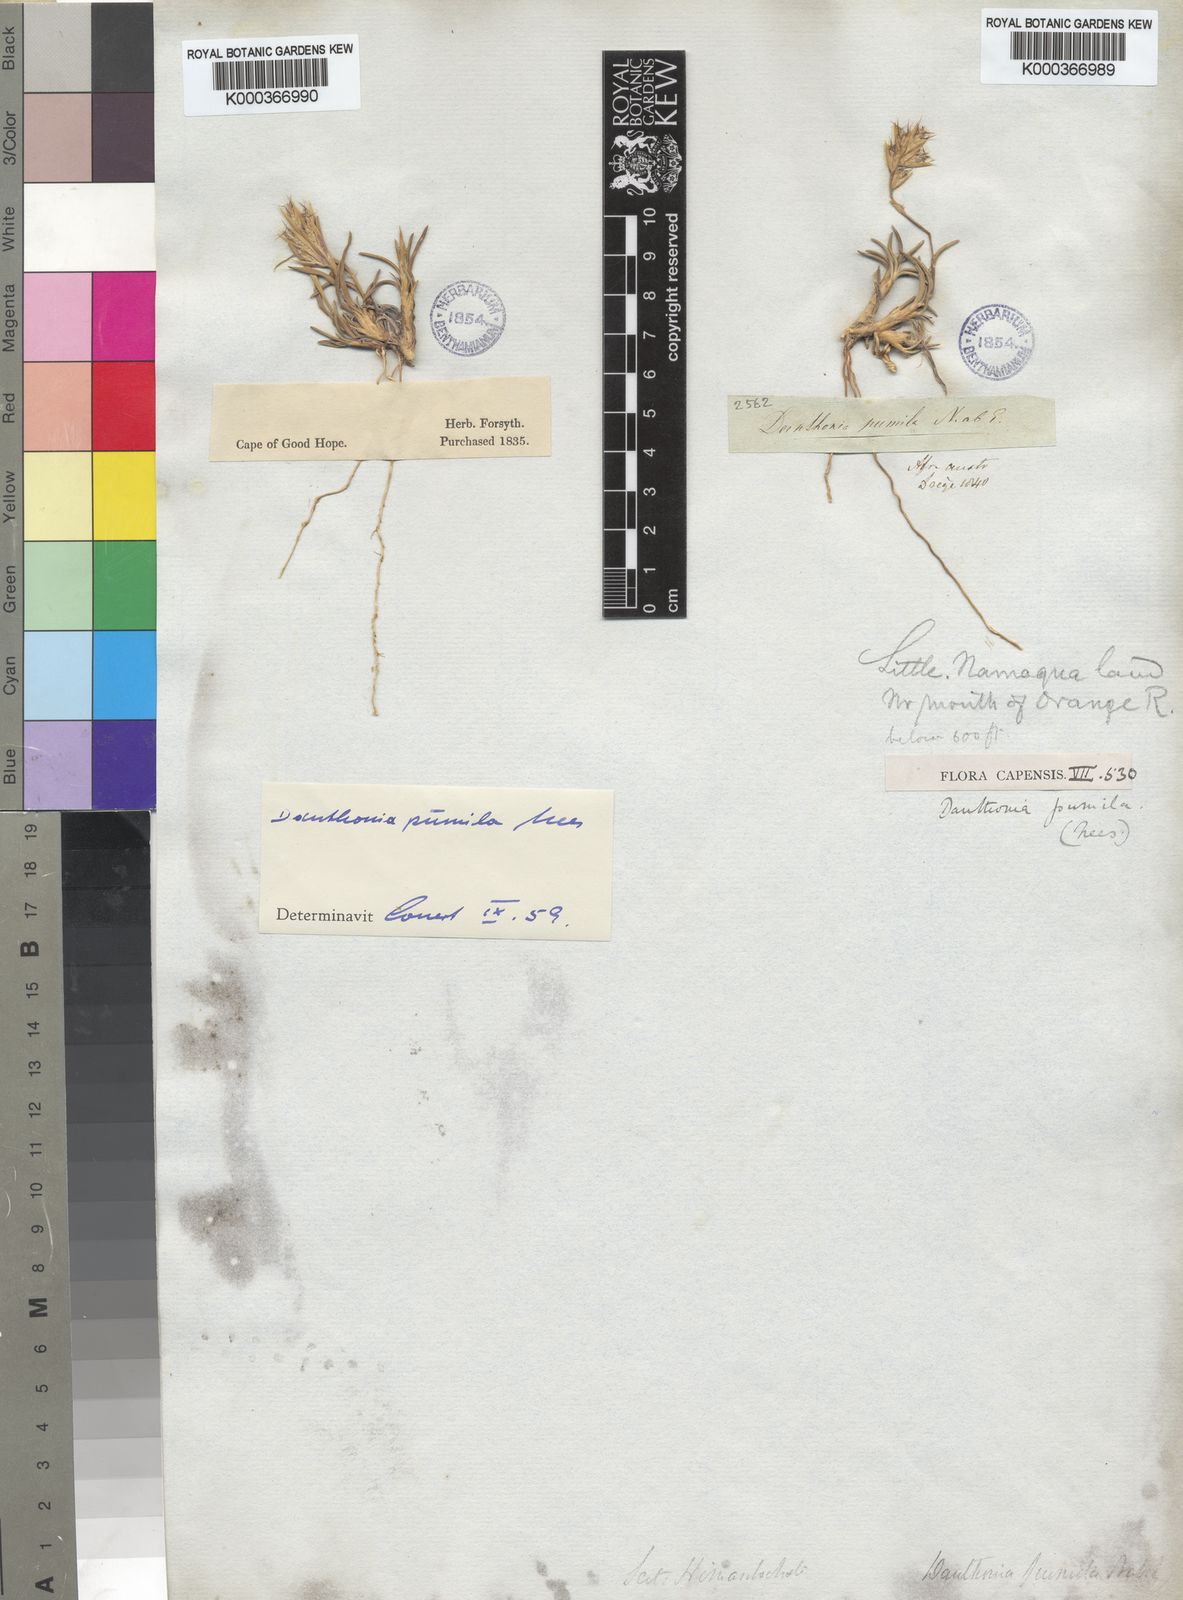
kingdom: Plantae
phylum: Tracheophyta
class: Liliopsida
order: Poales
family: Poaceae
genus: Dregeochloa
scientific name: Dregeochloa pumila
